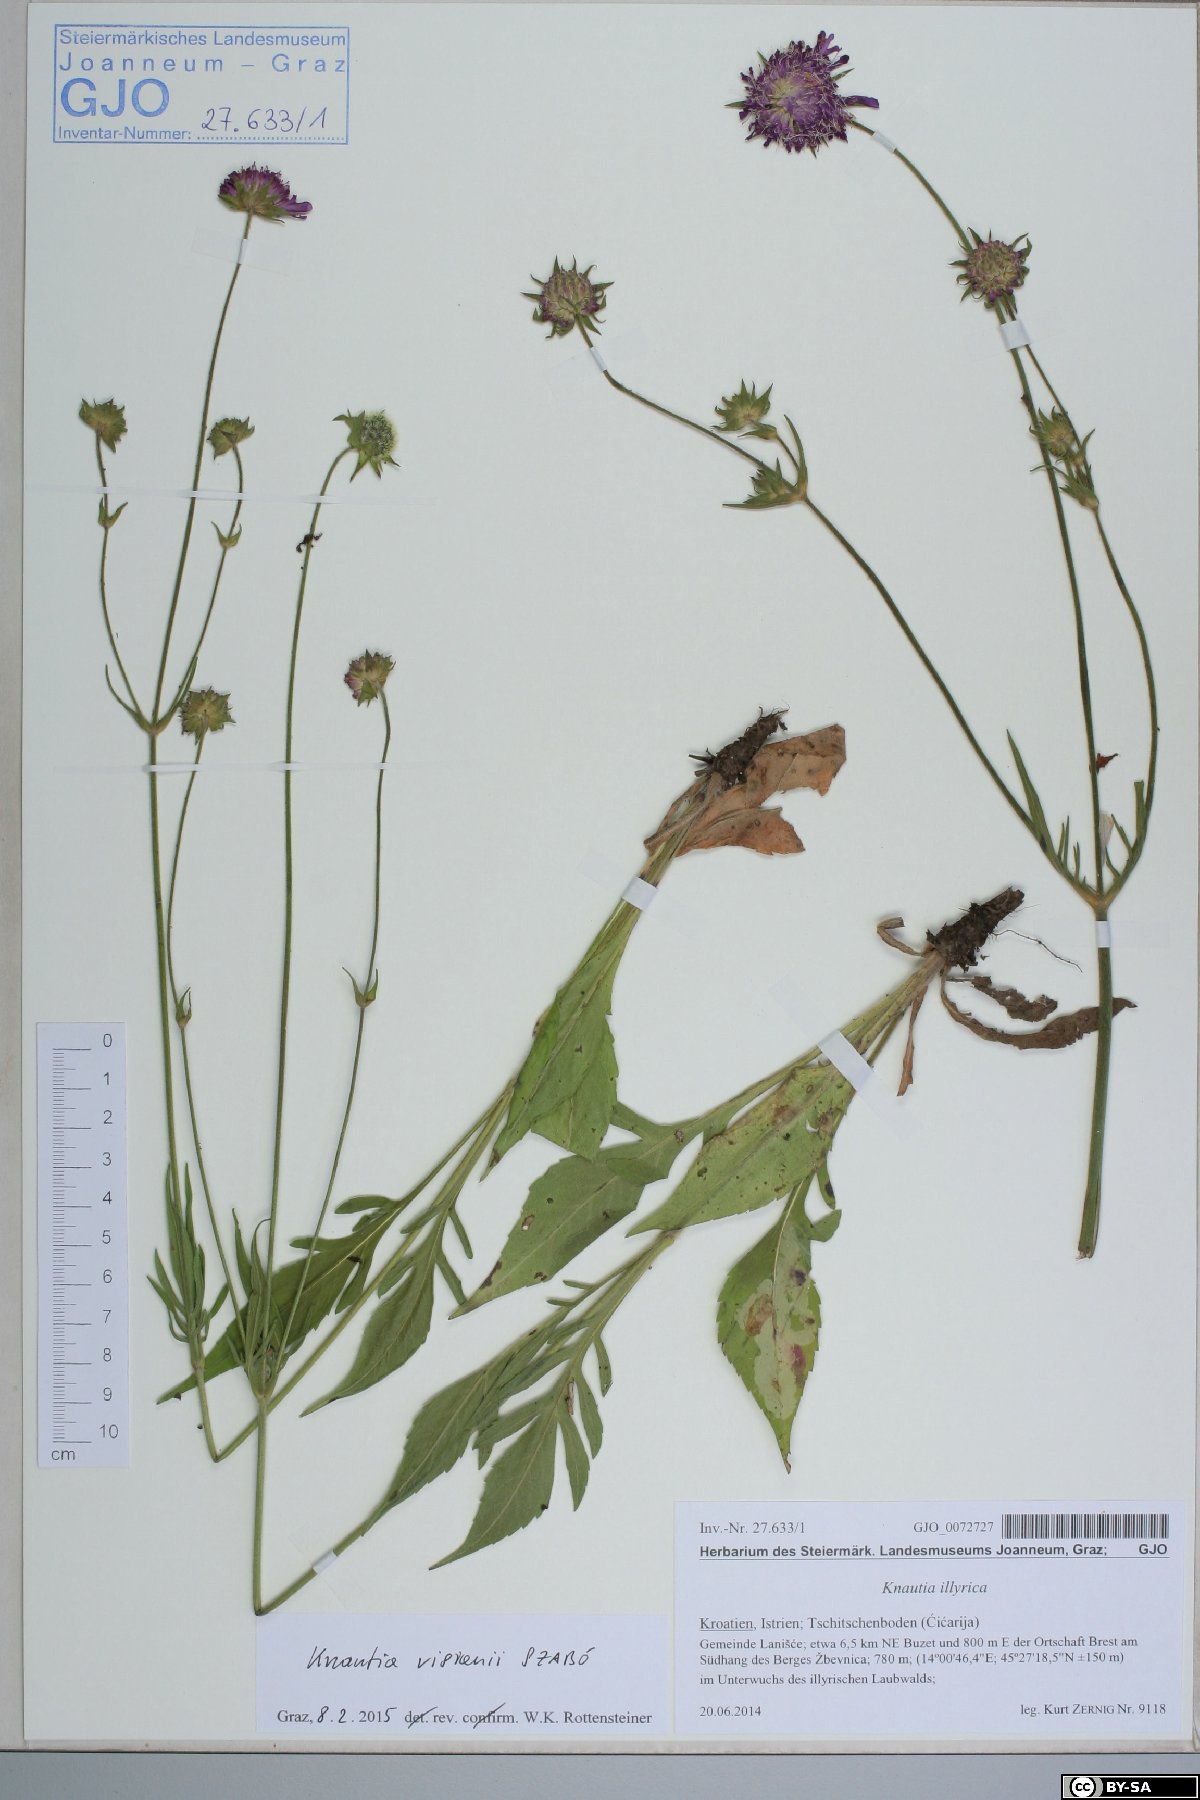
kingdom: Plantae
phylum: Tracheophyta
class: Magnoliopsida
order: Dipsacales
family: Caprifoliaceae
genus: Knautia
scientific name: Knautia visianii
